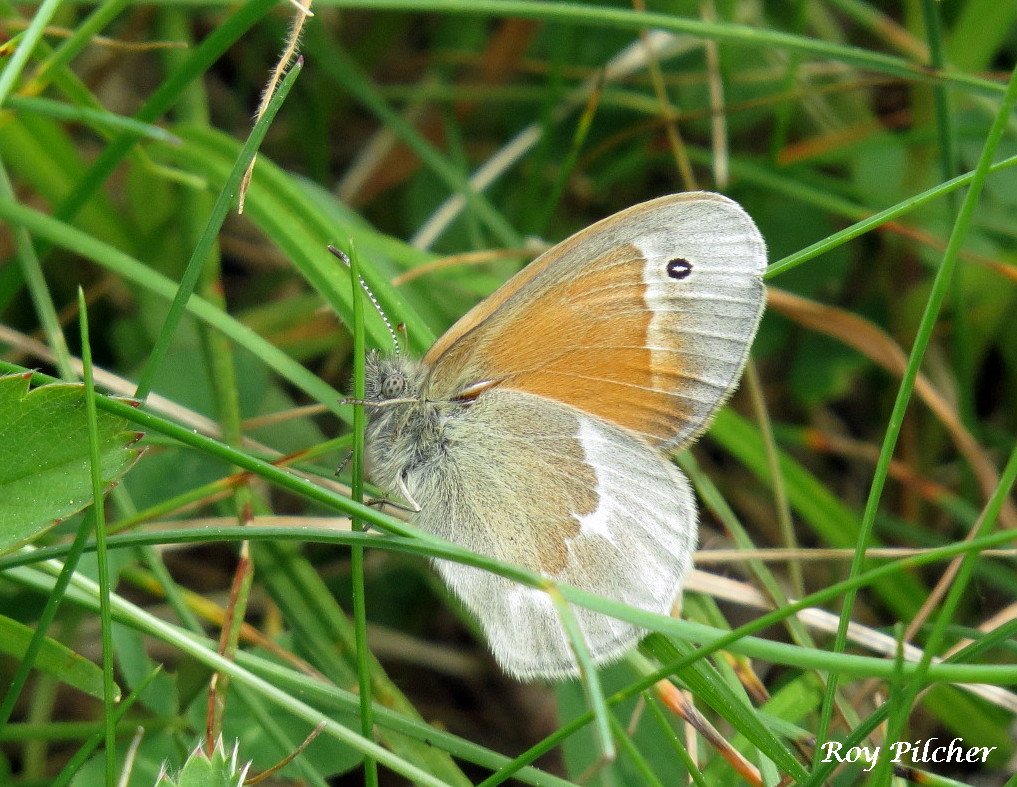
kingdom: Animalia
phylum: Arthropoda
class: Insecta
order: Lepidoptera
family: Nymphalidae
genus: Coenonympha
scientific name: Coenonympha tullia
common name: Large Heath
